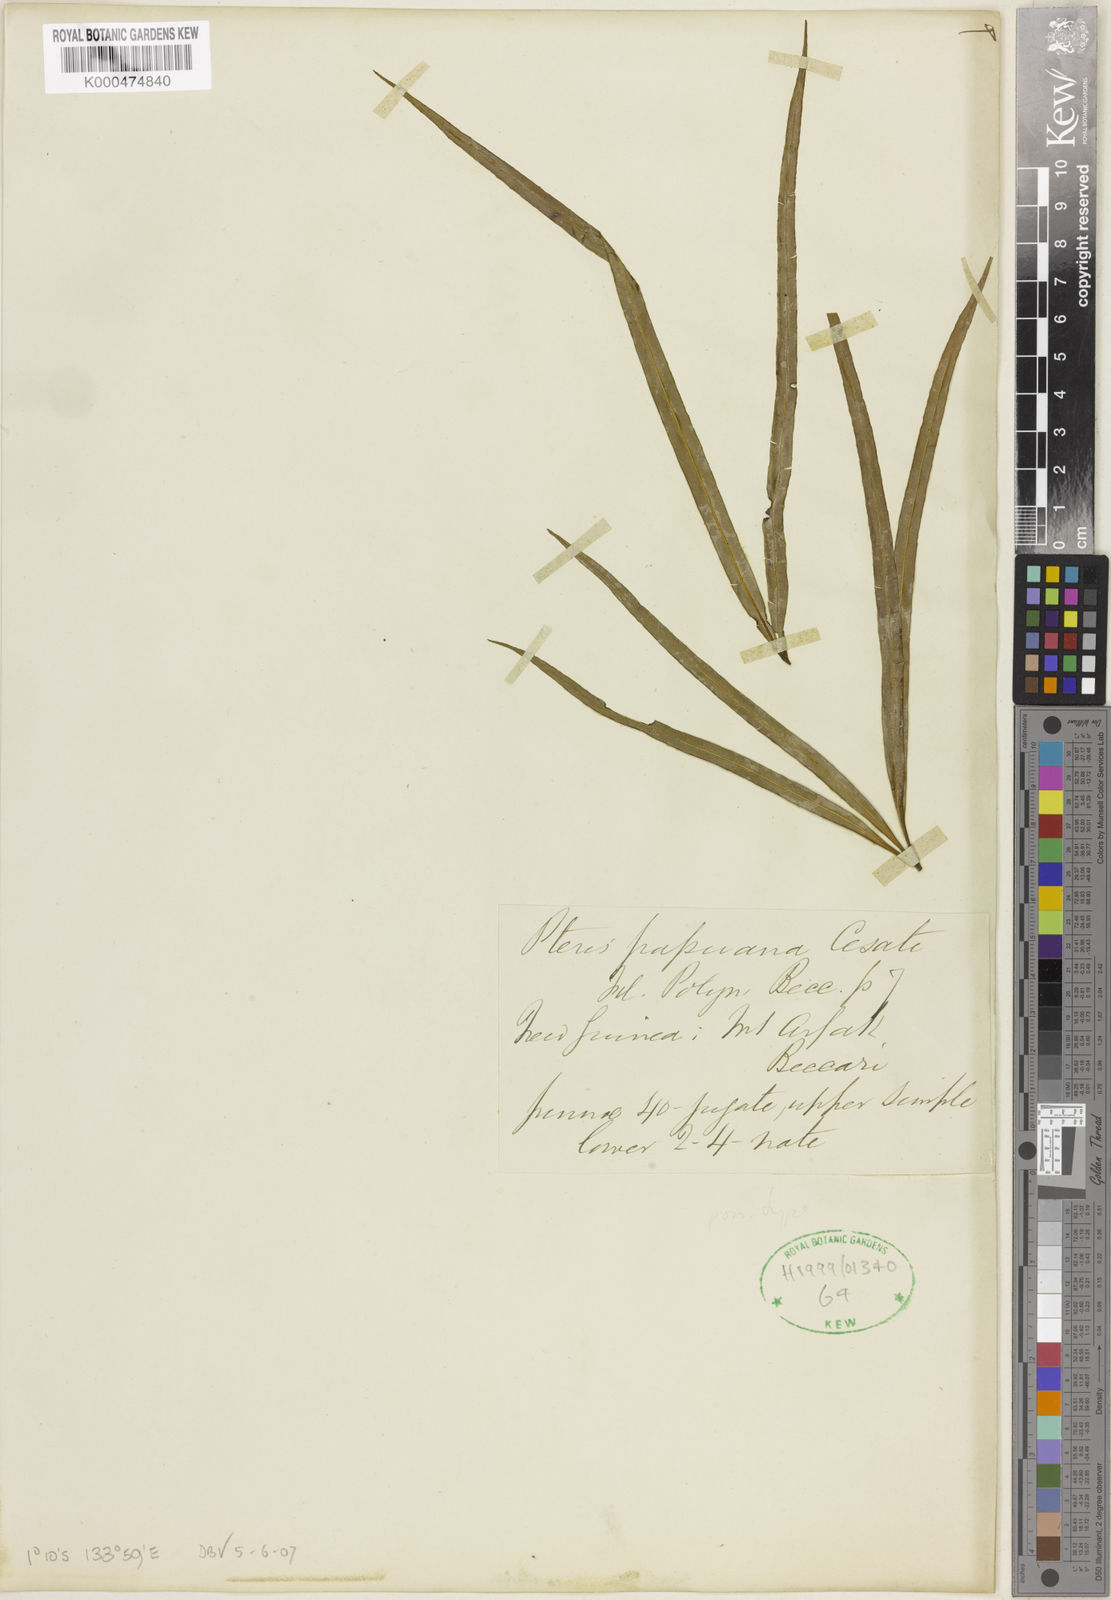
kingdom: Plantae
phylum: Tracheophyta
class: Polypodiopsida
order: Polypodiales
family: Pteridaceae
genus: Pteris
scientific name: Pteris papuana
